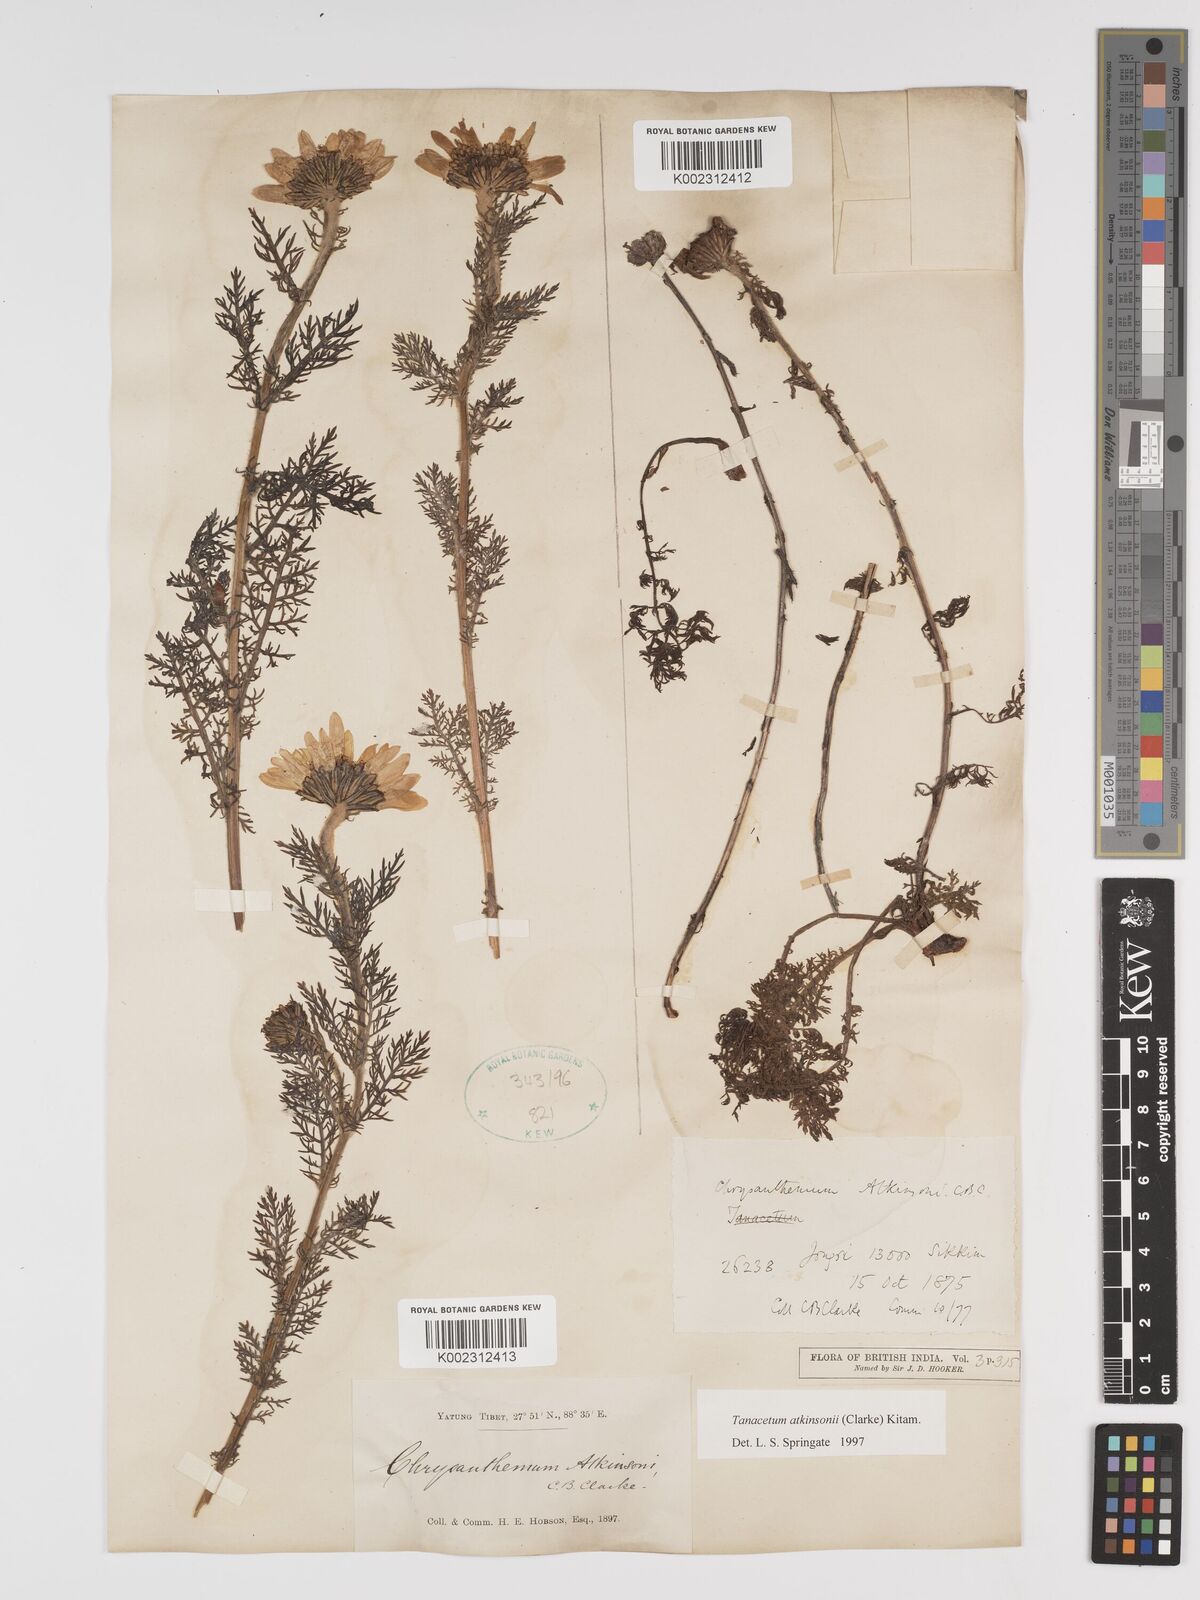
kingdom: Plantae
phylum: Tracheophyta
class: Magnoliopsida
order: Asterales
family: Asteraceae
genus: Tanacetum
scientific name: Tanacetum atkinsonii
